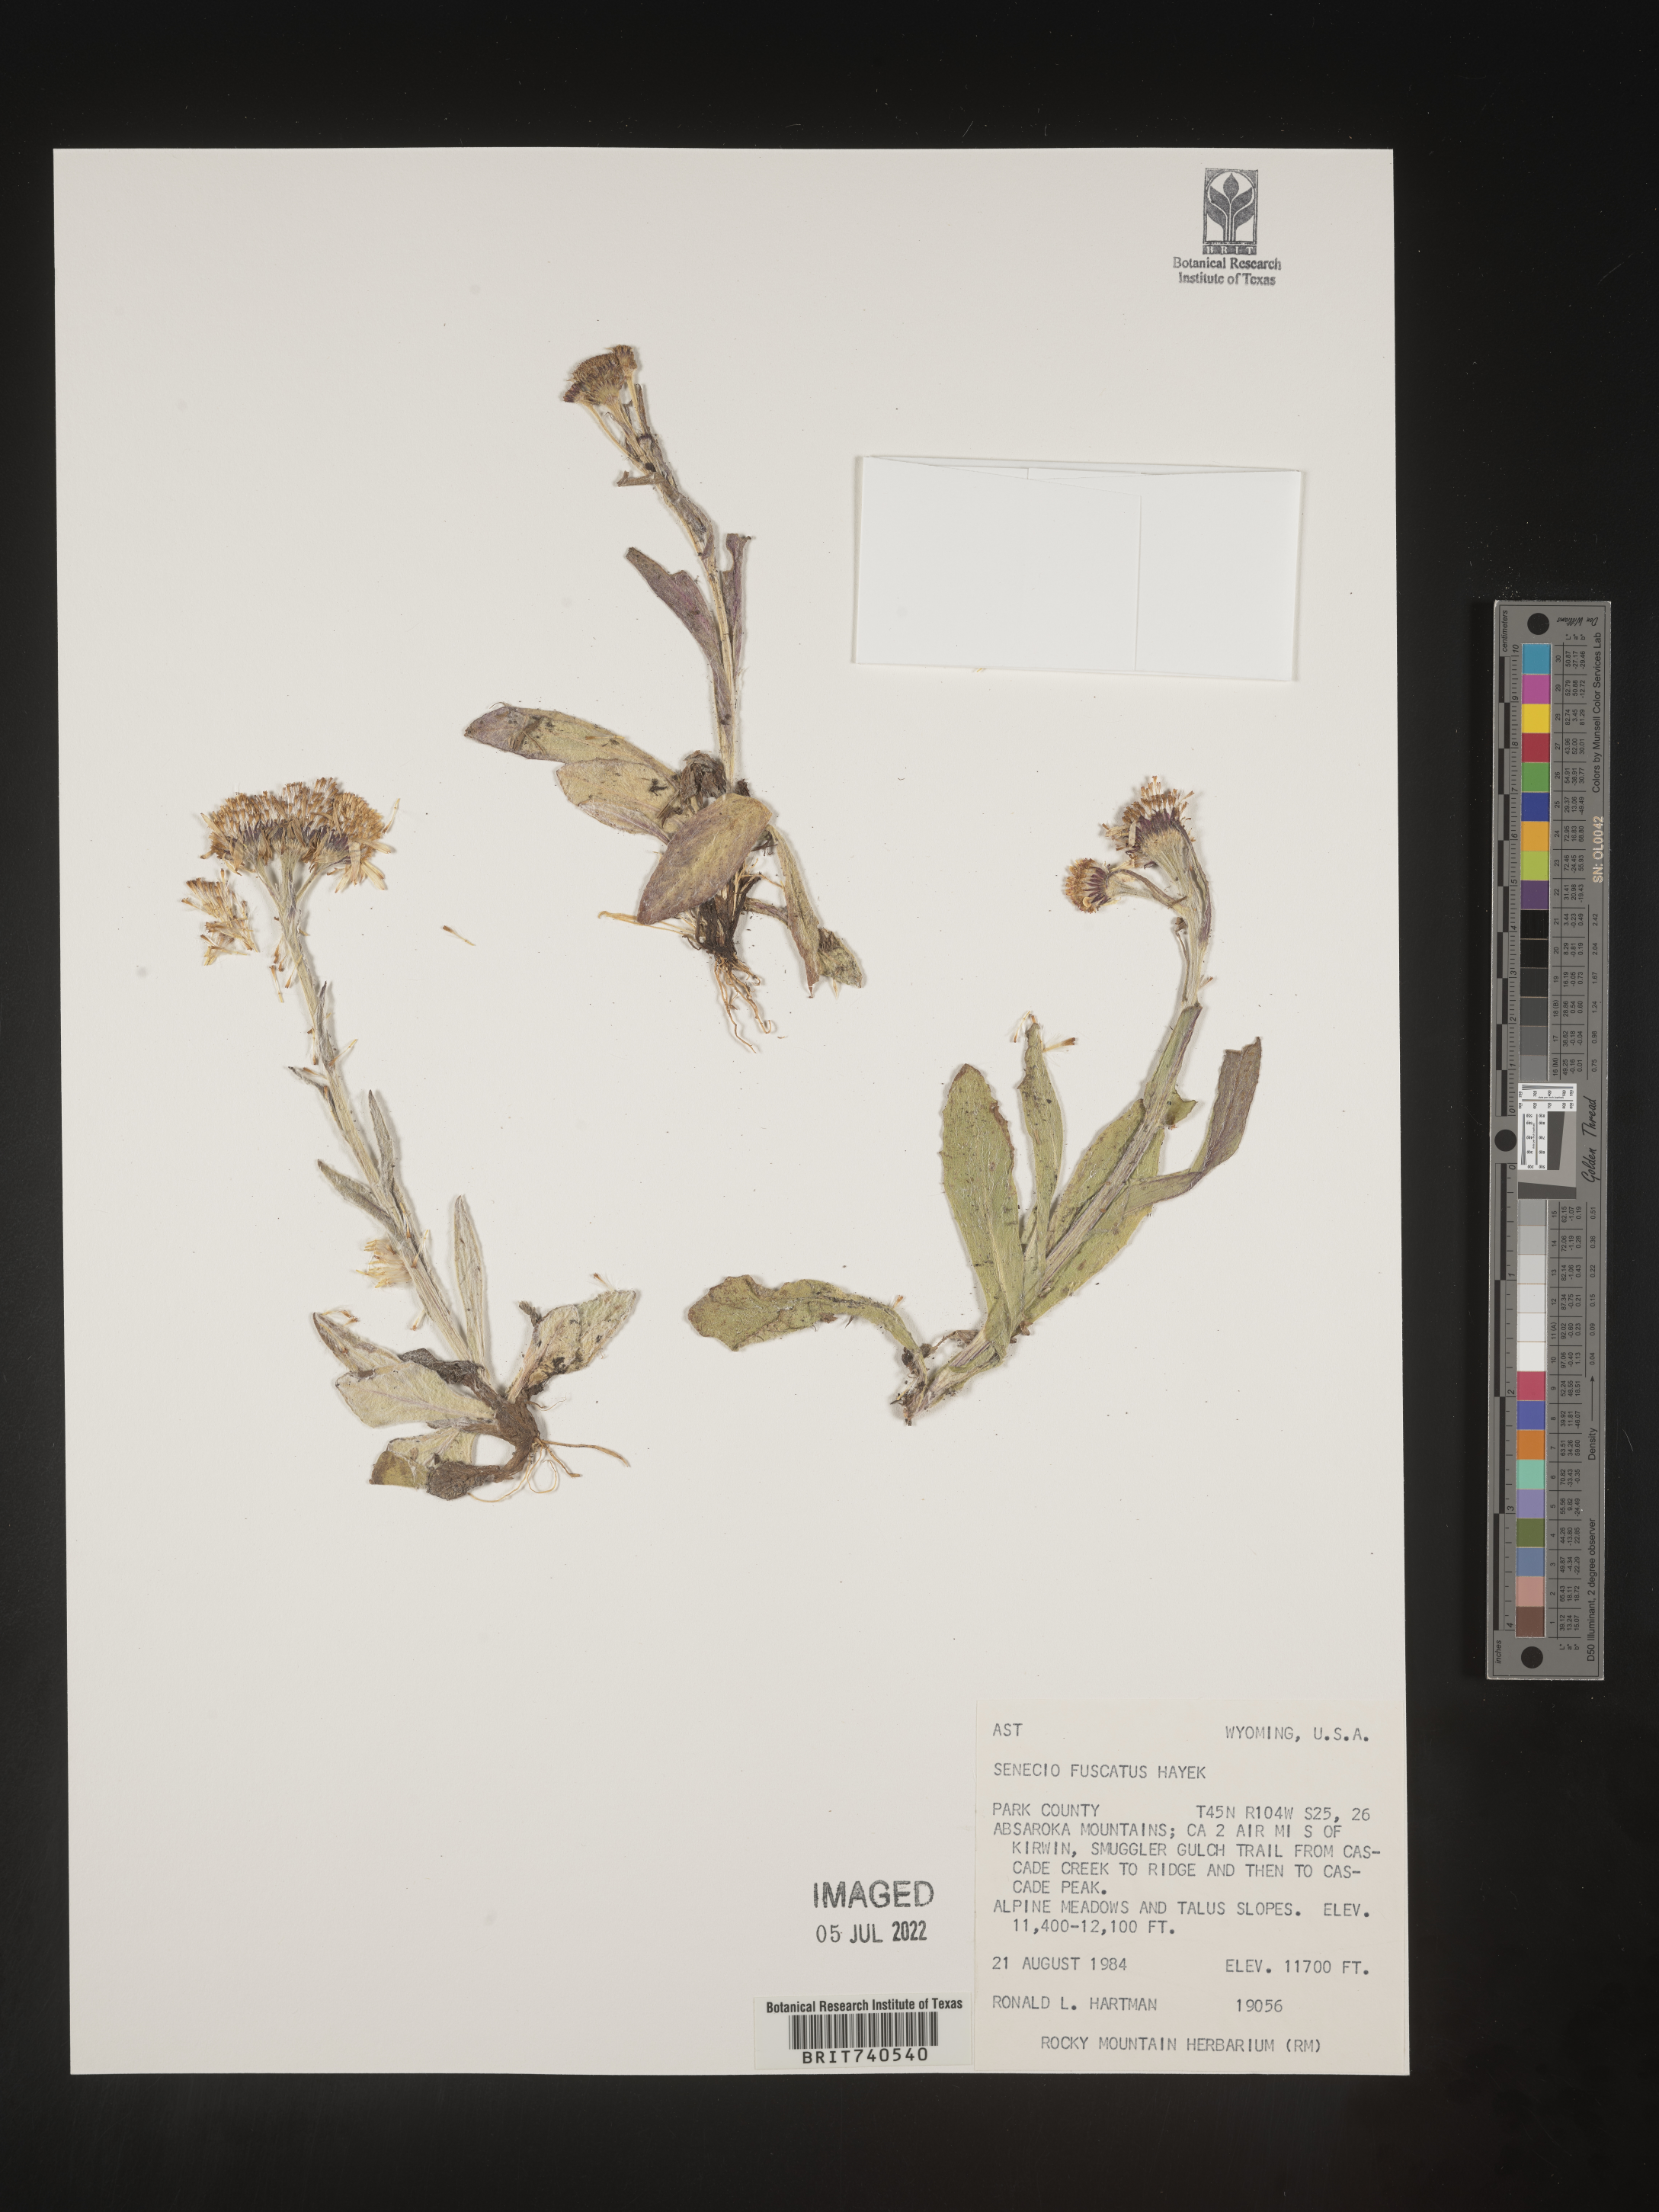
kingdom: Plantae
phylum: Tracheophyta
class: Magnoliopsida
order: Asterales
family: Asteraceae
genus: Senecio
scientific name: Senecio fuscatus
